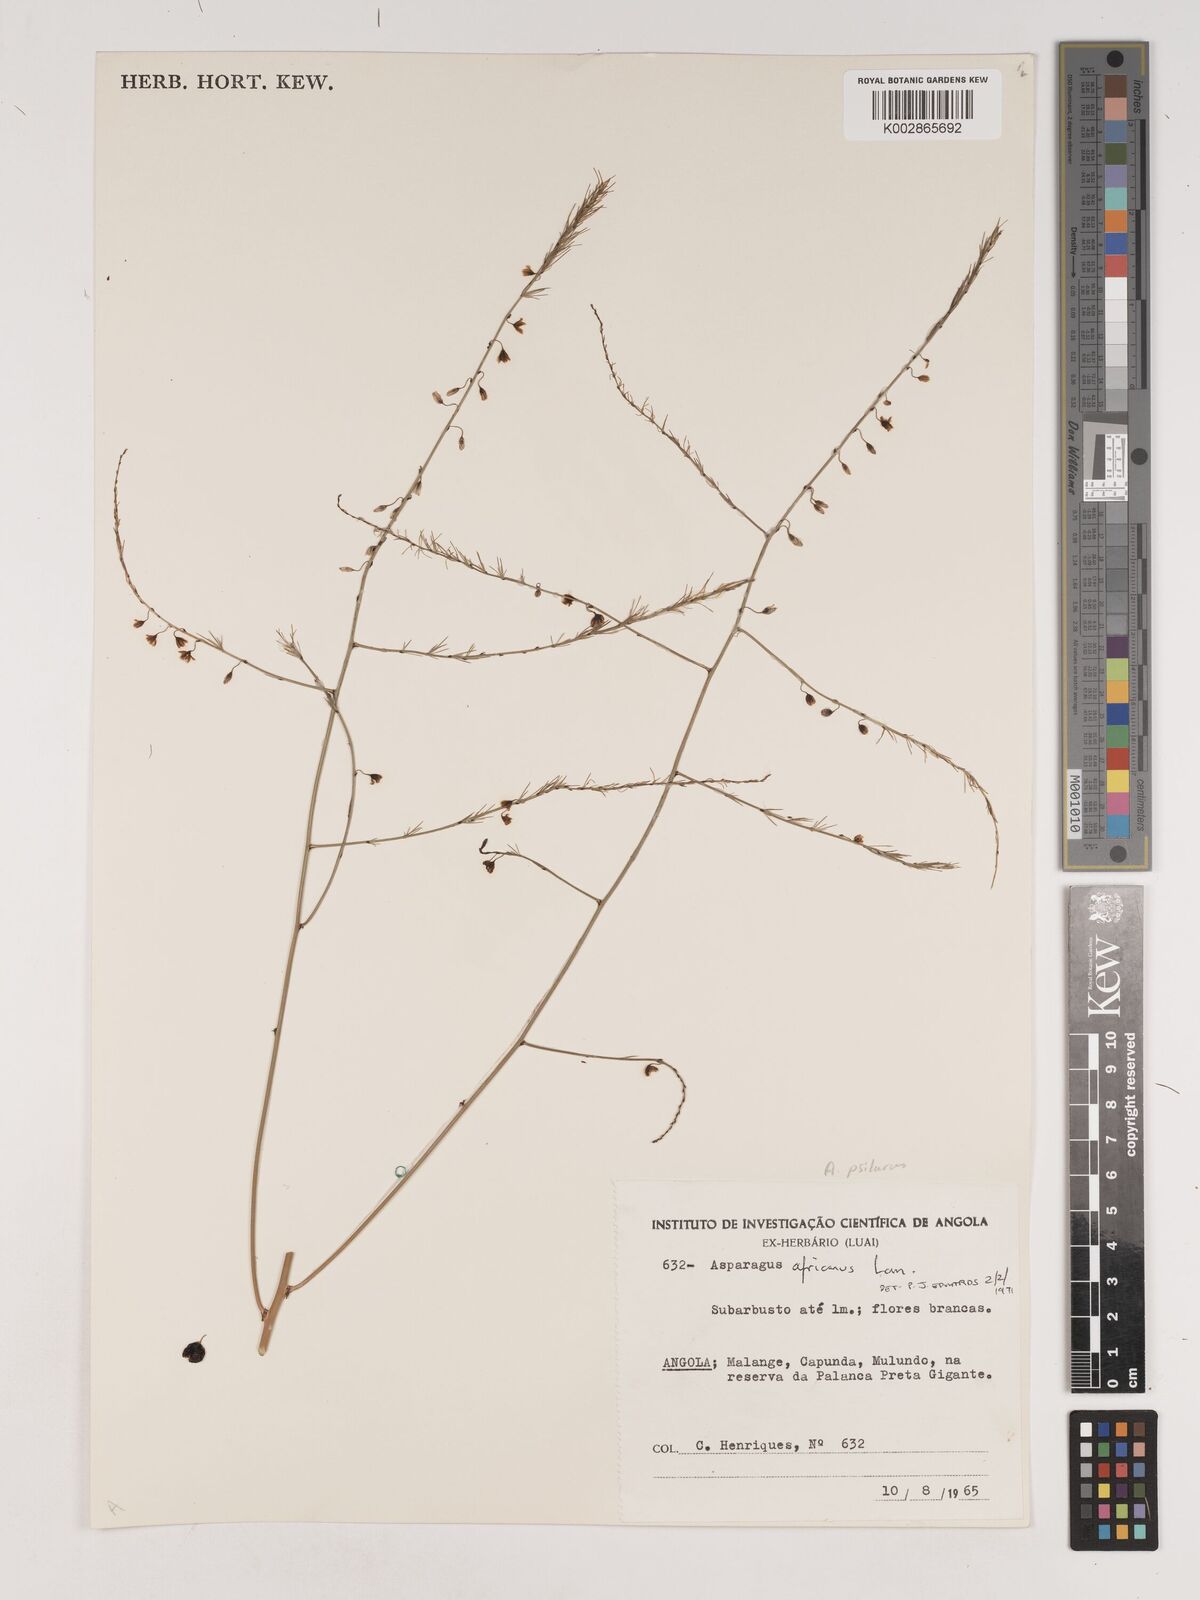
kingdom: Plantae
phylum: Tracheophyta
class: Liliopsida
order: Asparagales
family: Asparagaceae
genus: Asparagus
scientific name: Asparagus
